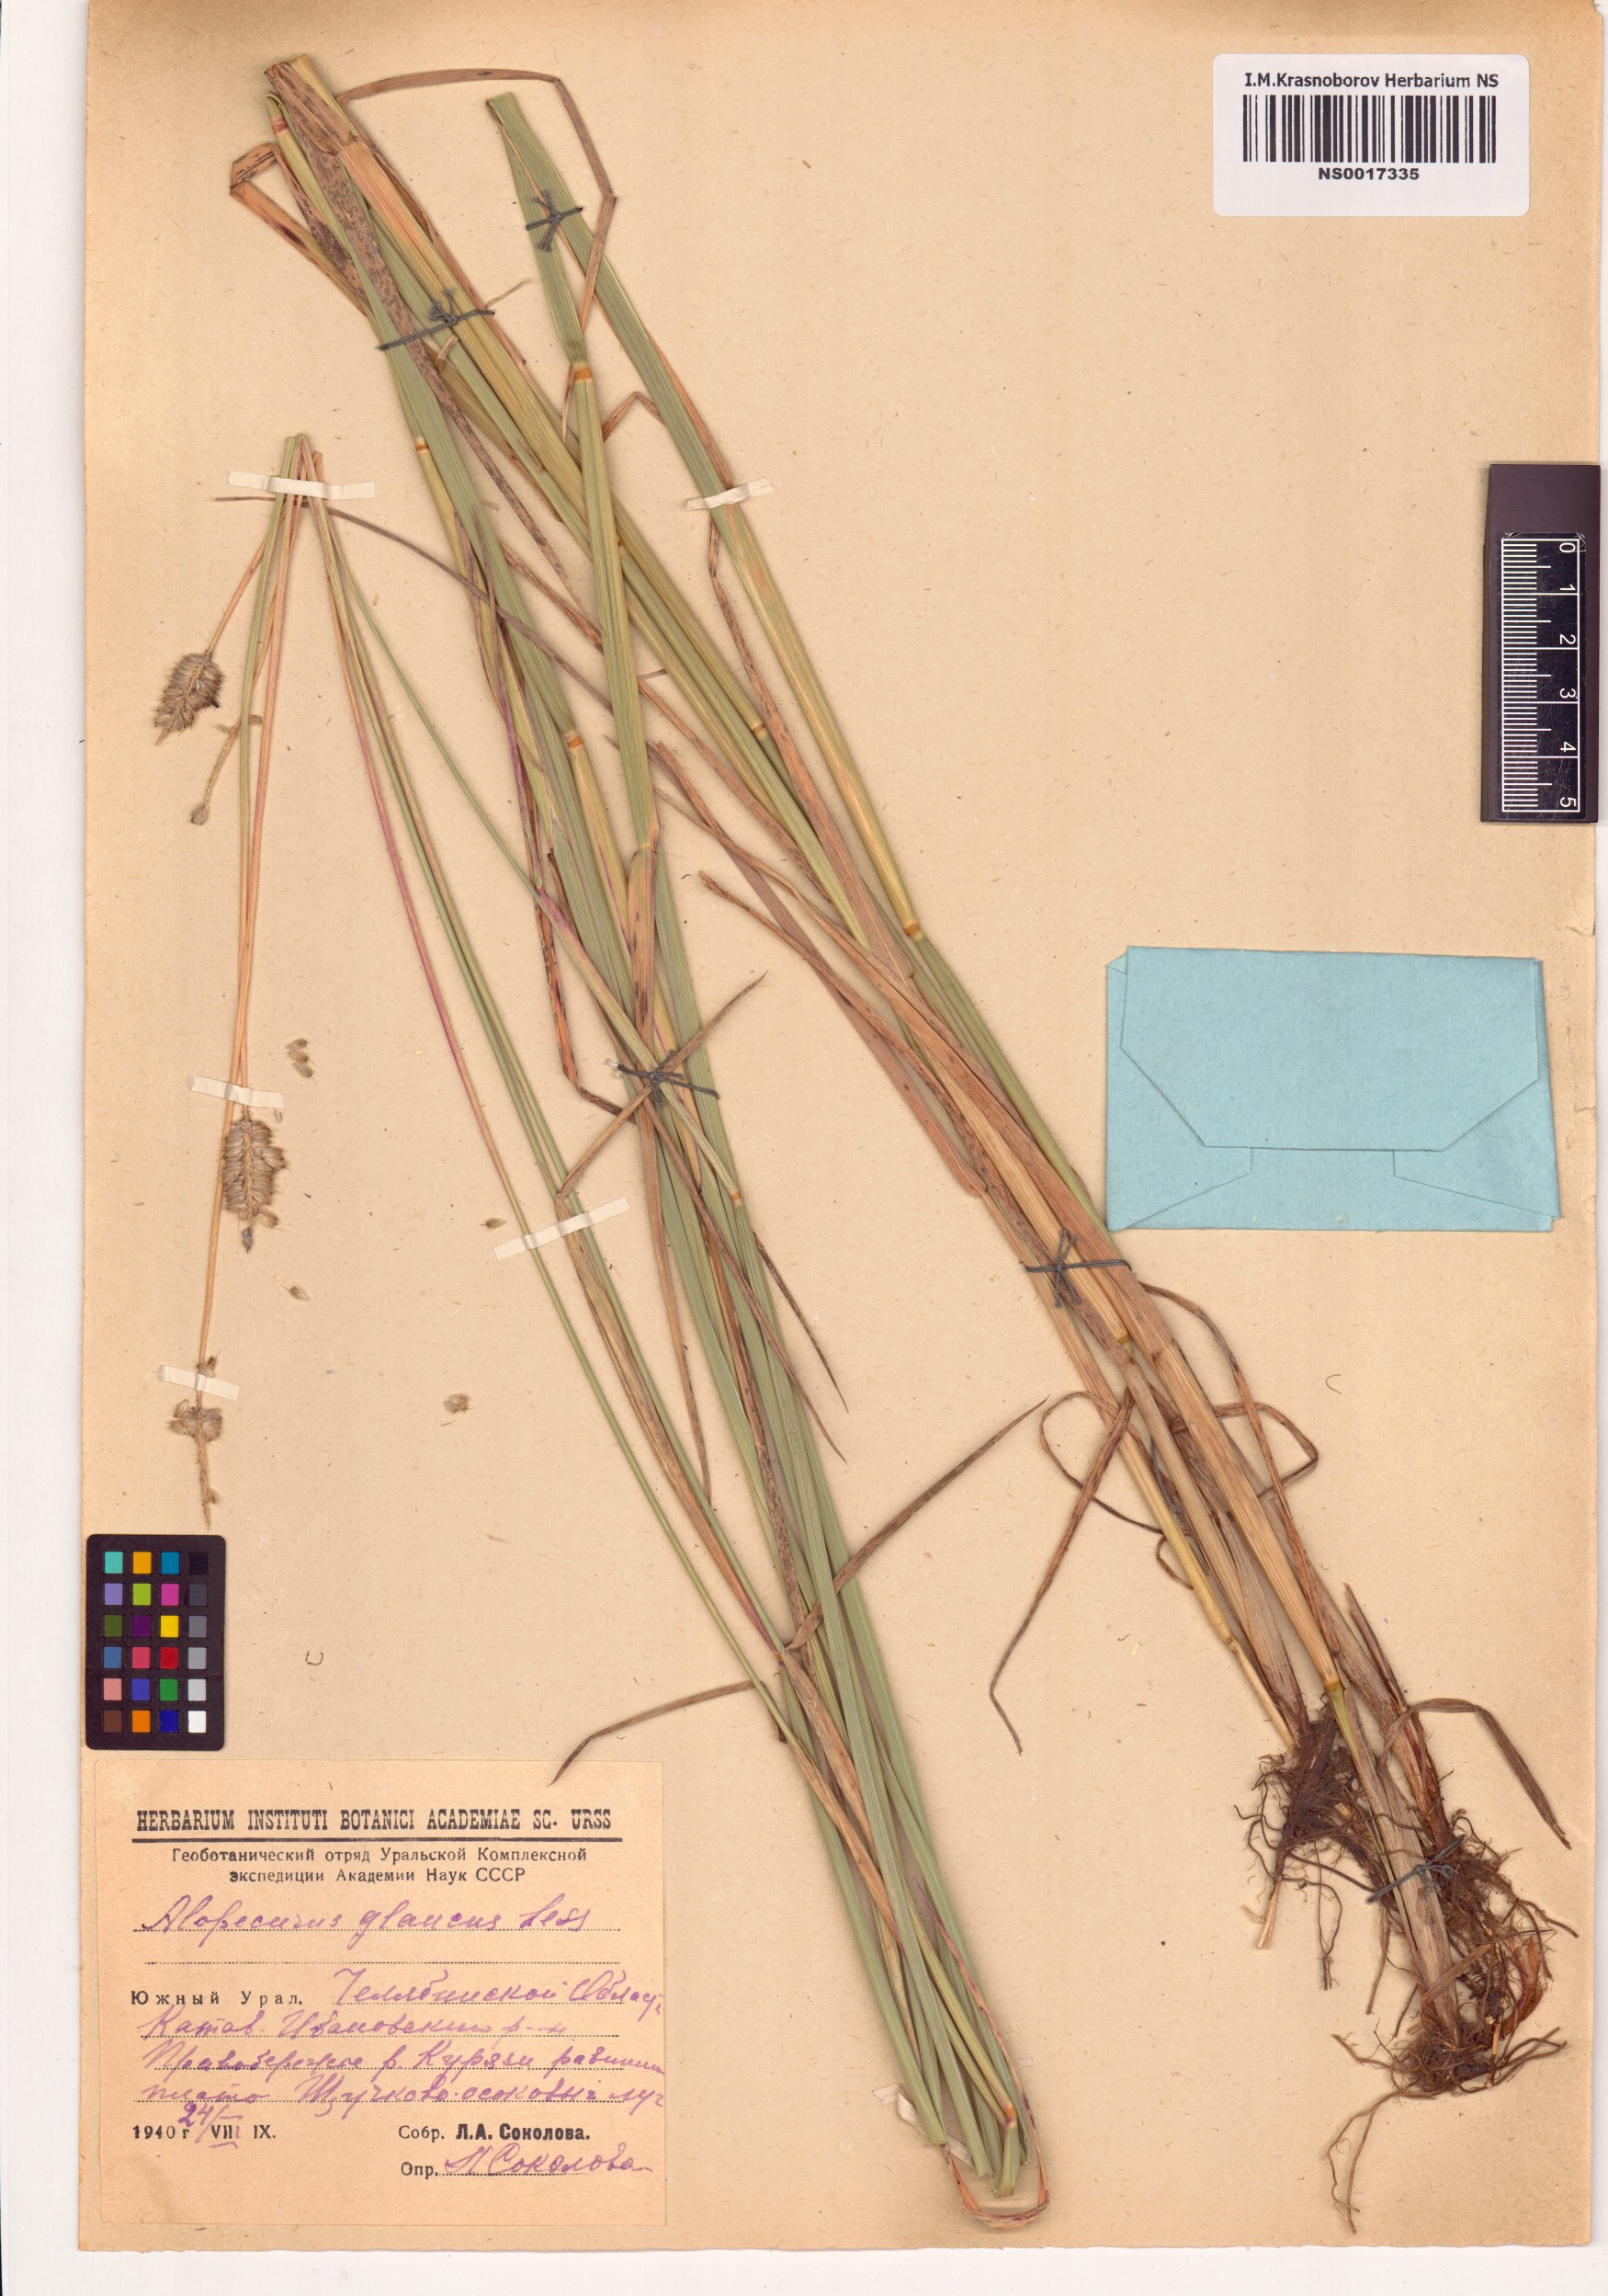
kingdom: Plantae
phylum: Tracheophyta
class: Liliopsida
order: Poales
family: Poaceae
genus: Alopecurus
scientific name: Alopecurus magellanicus
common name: Alpine foxtail
